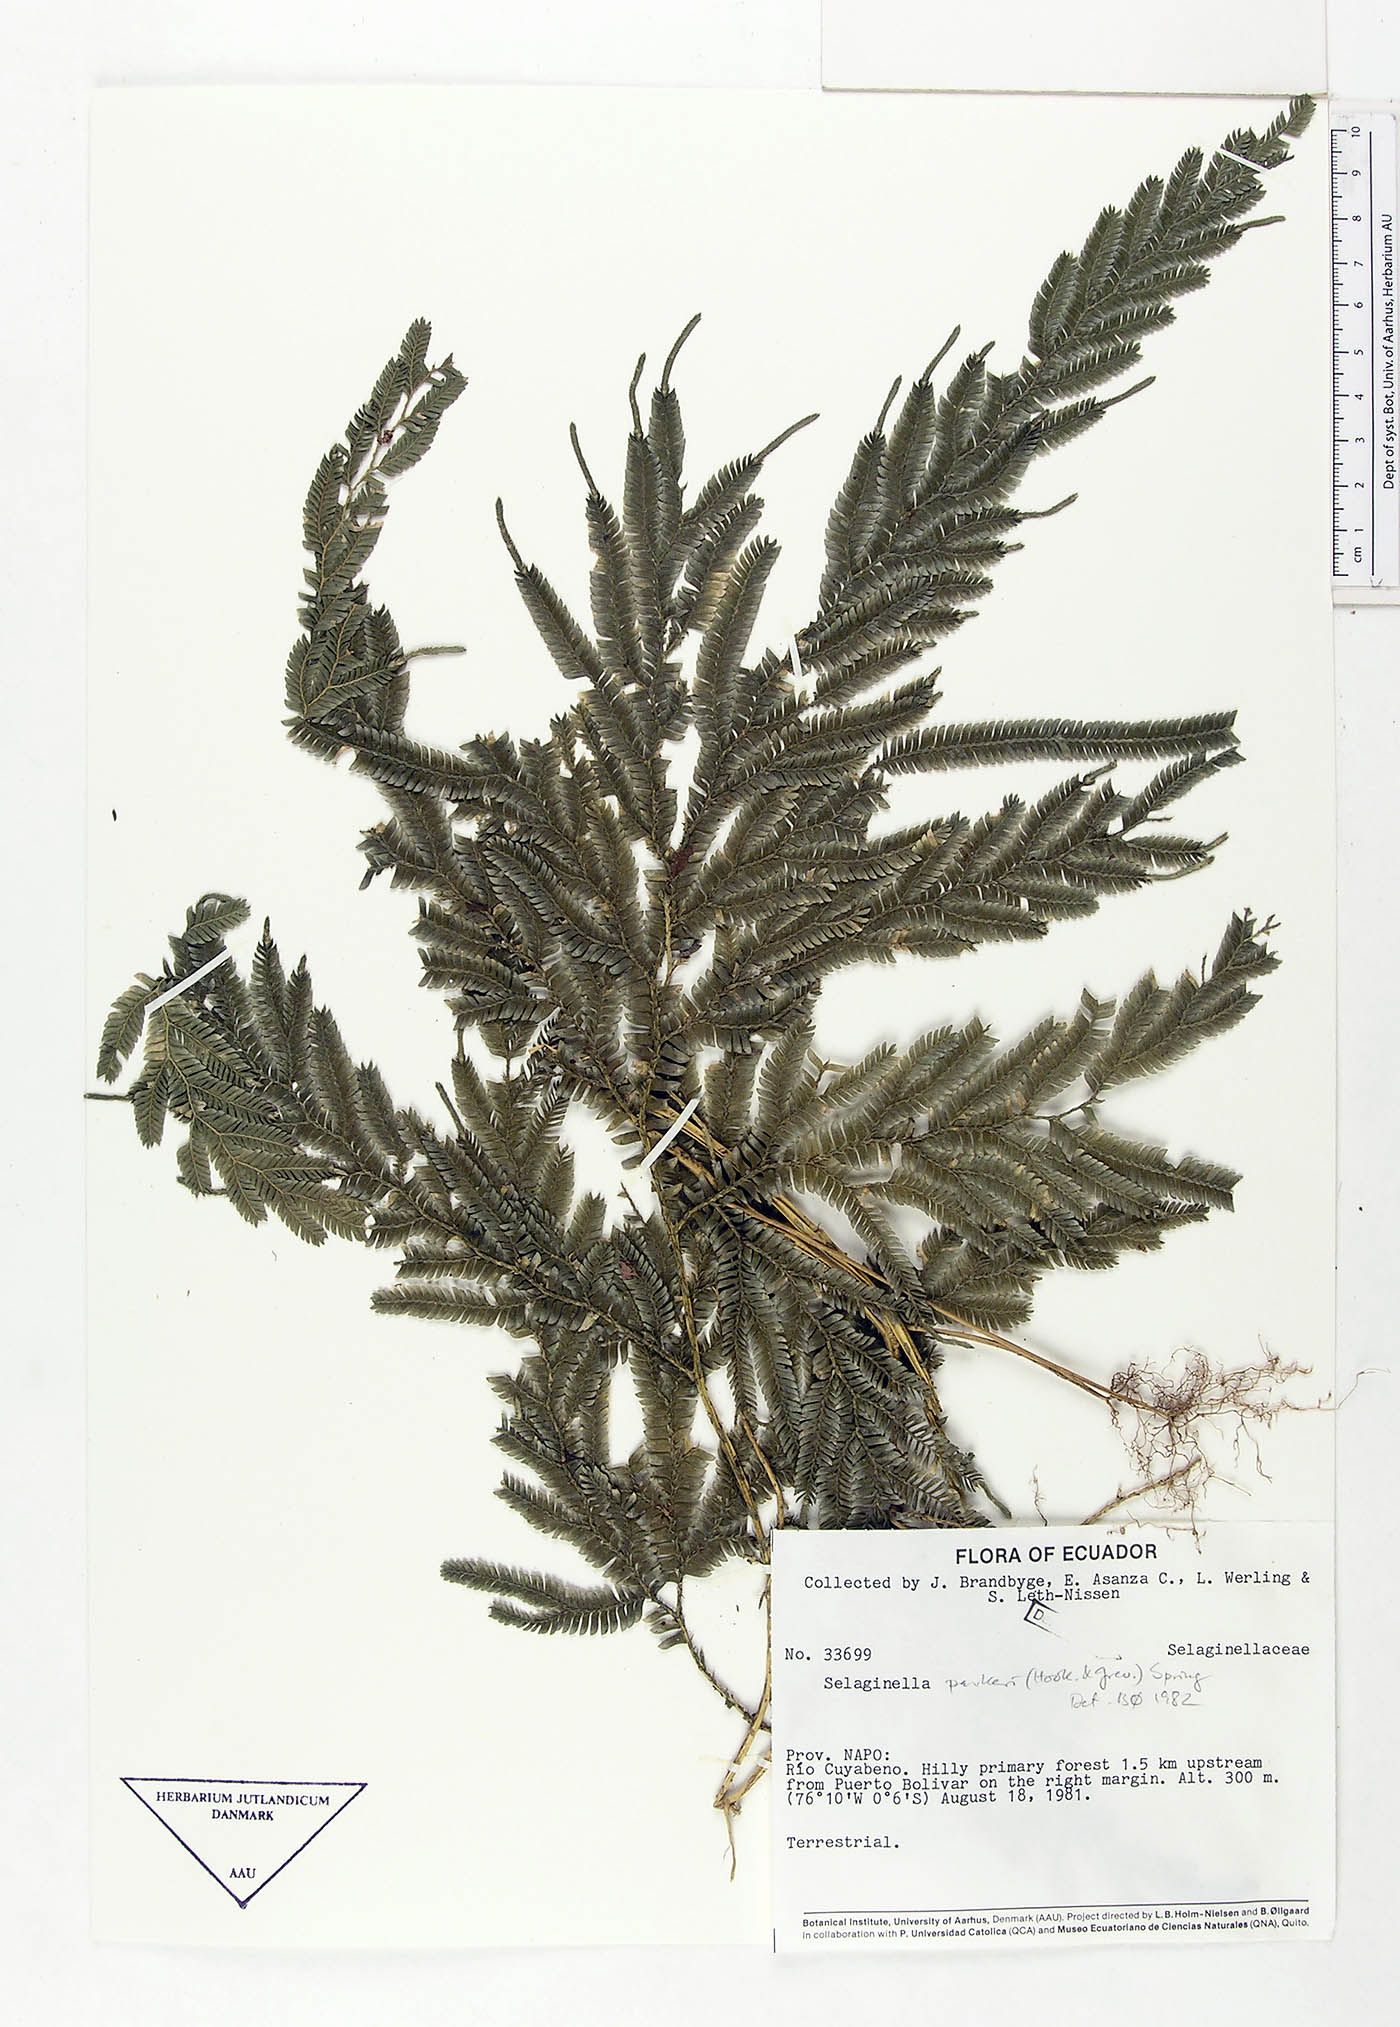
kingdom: Plantae
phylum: Tracheophyta
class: Lycopodiopsida
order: Selaginellales
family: Selaginellaceae
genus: Selaginella
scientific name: Selaginella parkeri
